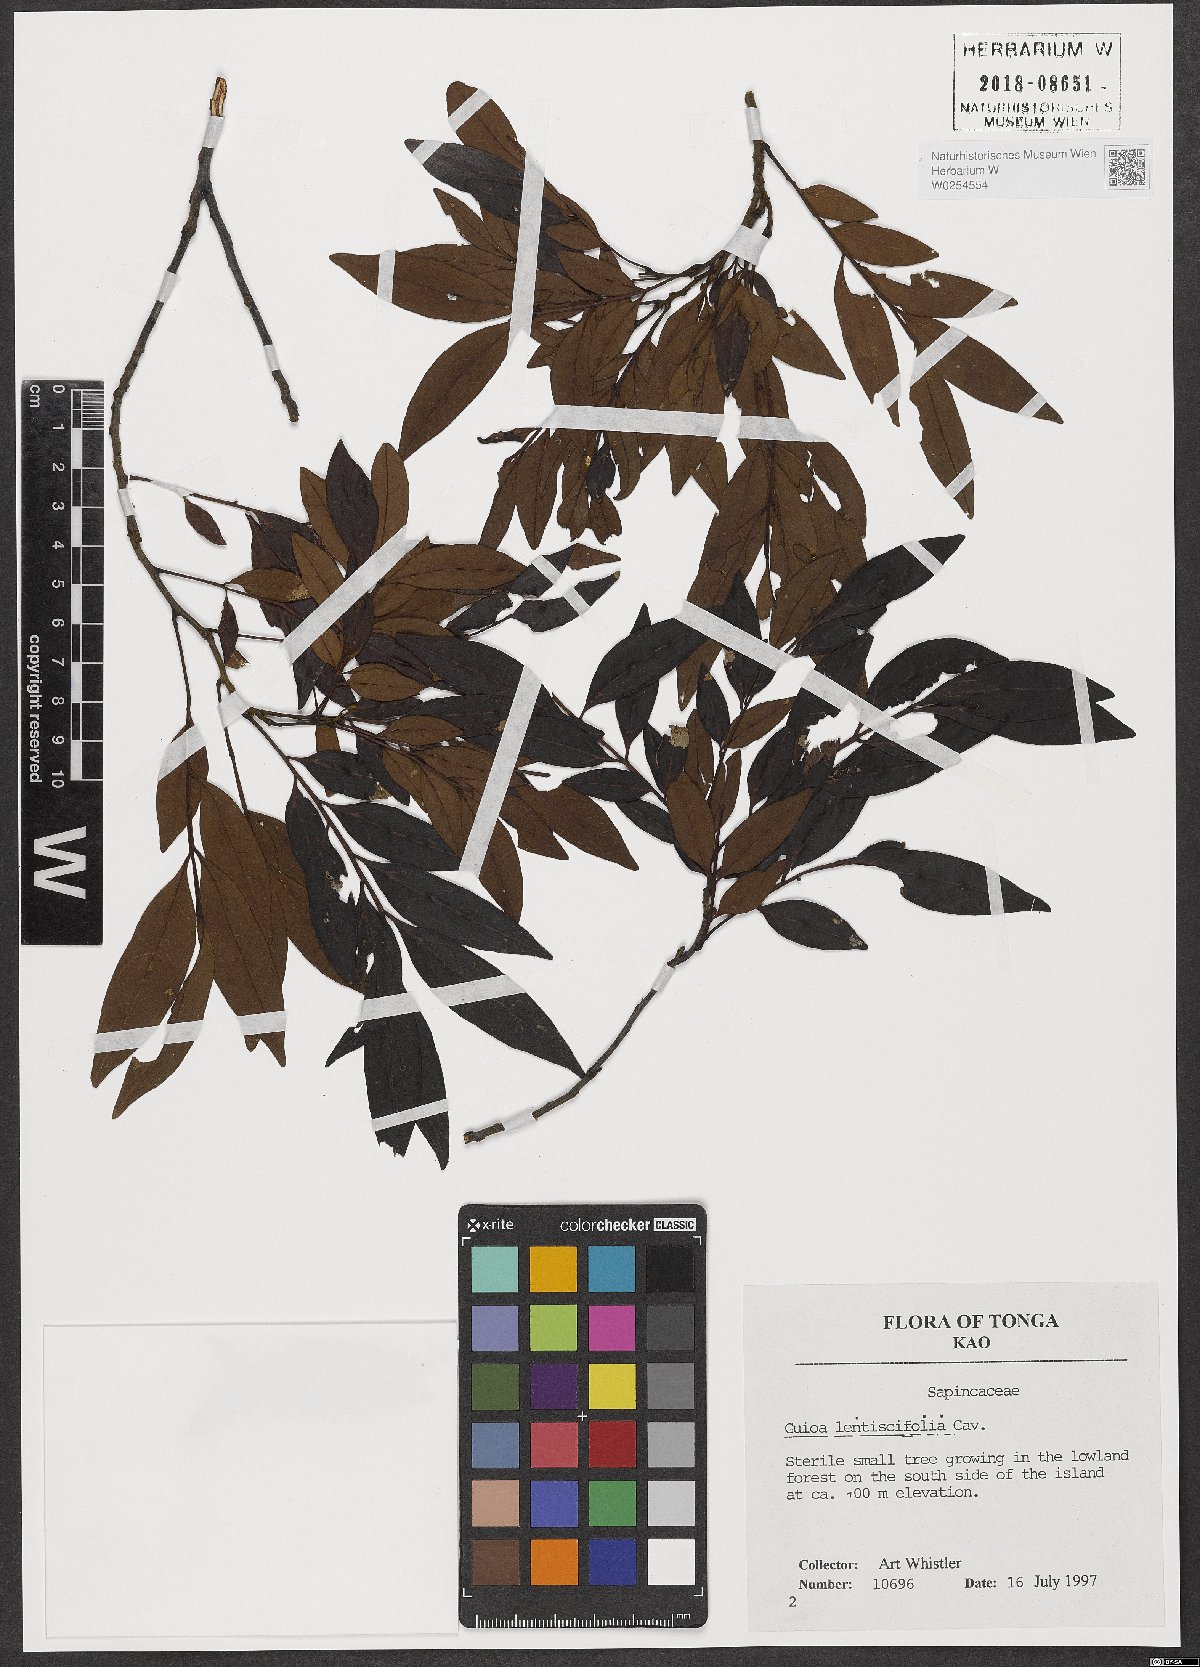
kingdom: Plantae
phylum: Tracheophyta
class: Magnoliopsida
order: Sapindales
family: Sapindaceae
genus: Guioa
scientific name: Guioa lentiscifolia
